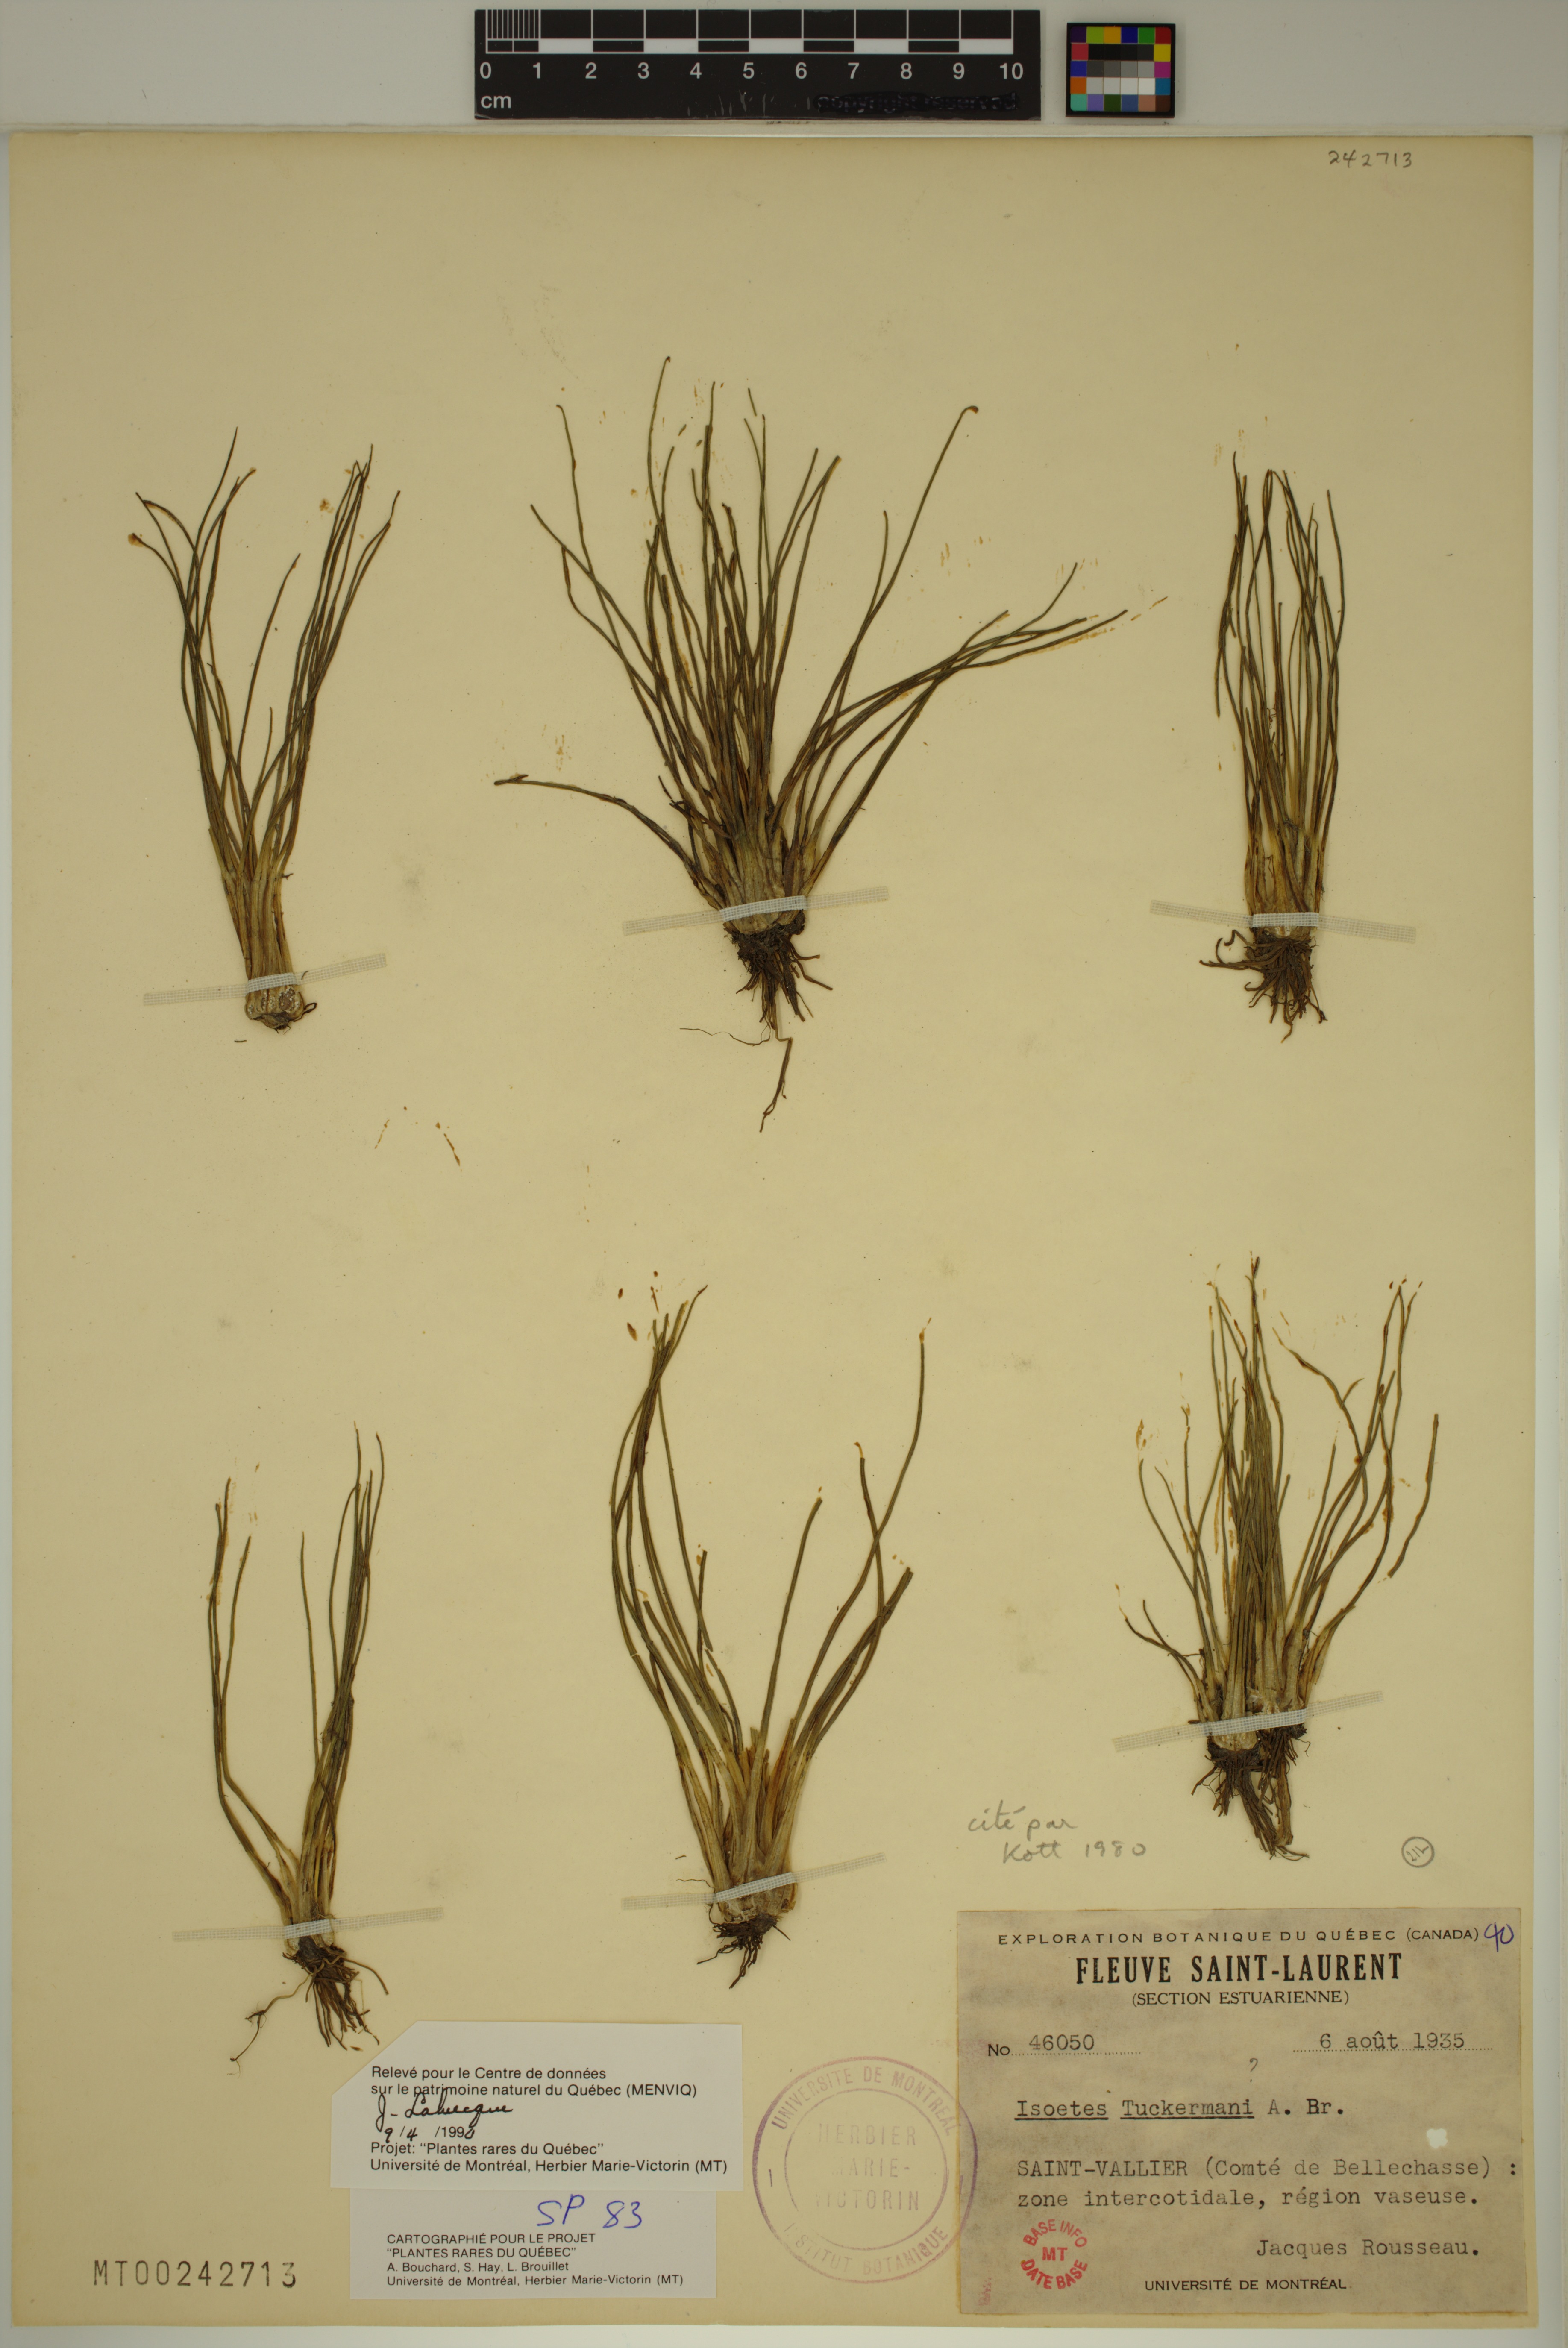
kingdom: Plantae
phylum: Tracheophyta
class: Lycopodiopsida
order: Isoetales
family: Isoetaceae
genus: Isoetes
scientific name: Isoetes laurentiana
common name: St. lawrence quillwort
